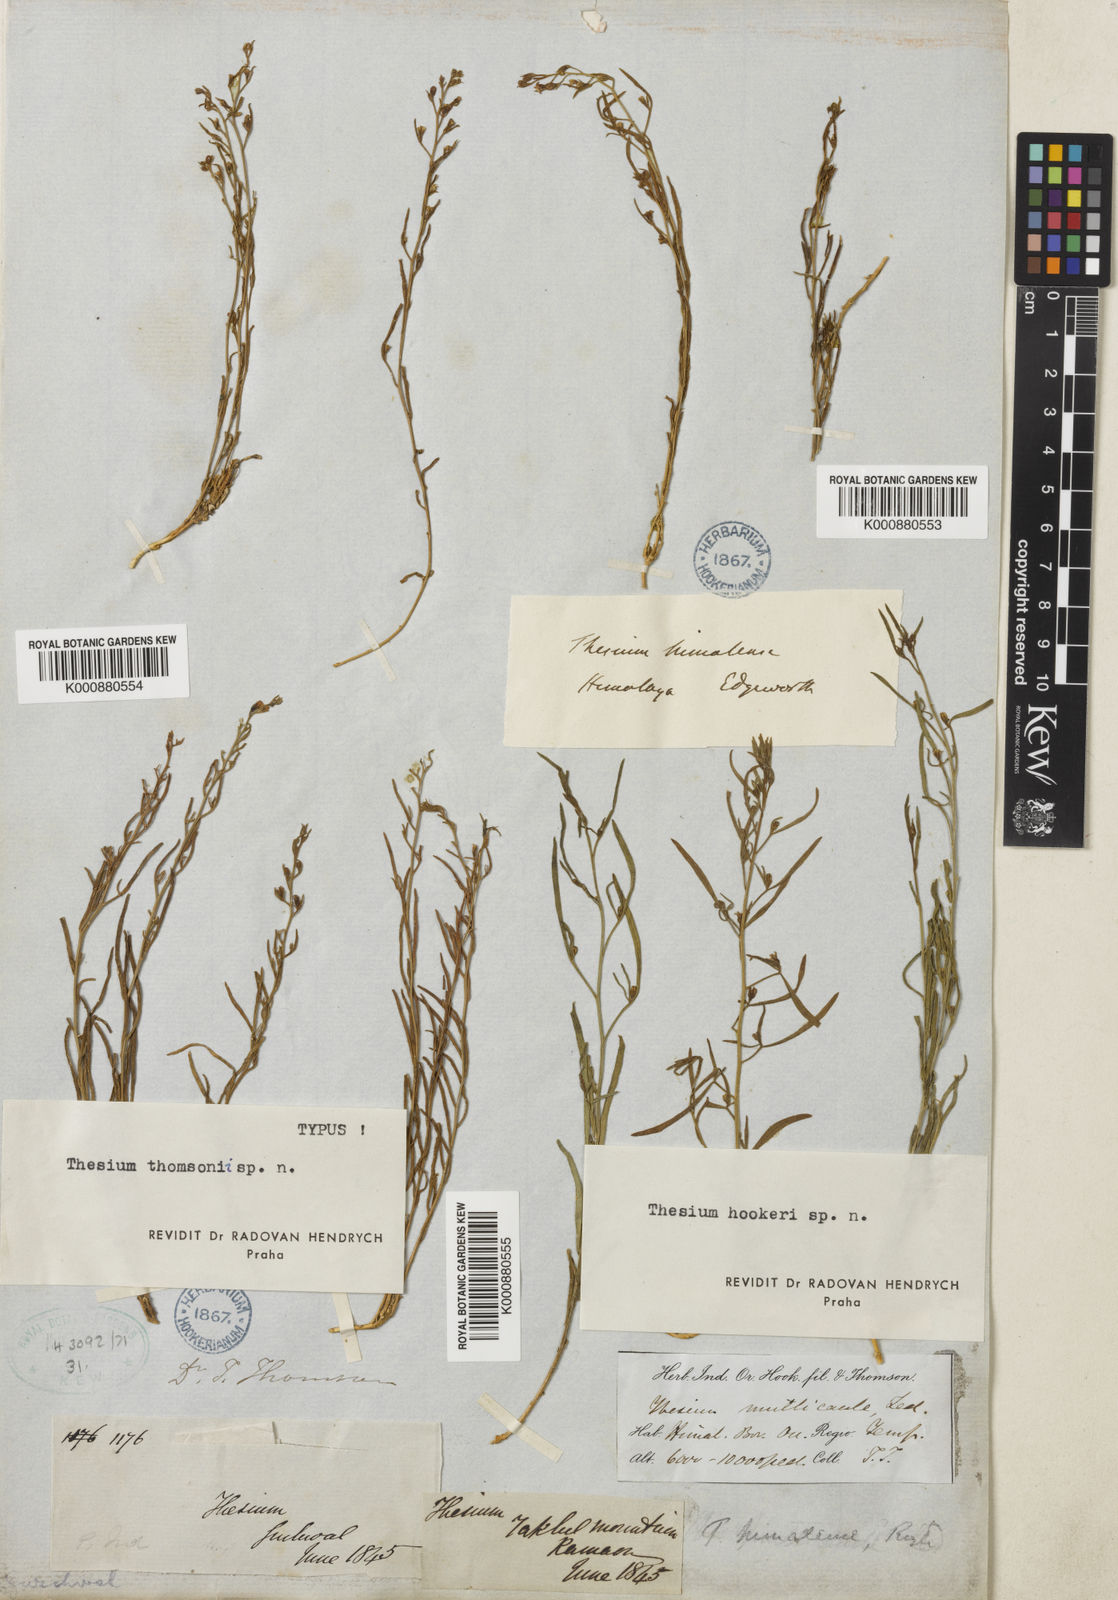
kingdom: Plantae
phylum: Tracheophyta
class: Magnoliopsida
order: Santalales
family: Thesiaceae
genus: Thesium
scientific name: Thesium thomsonii
